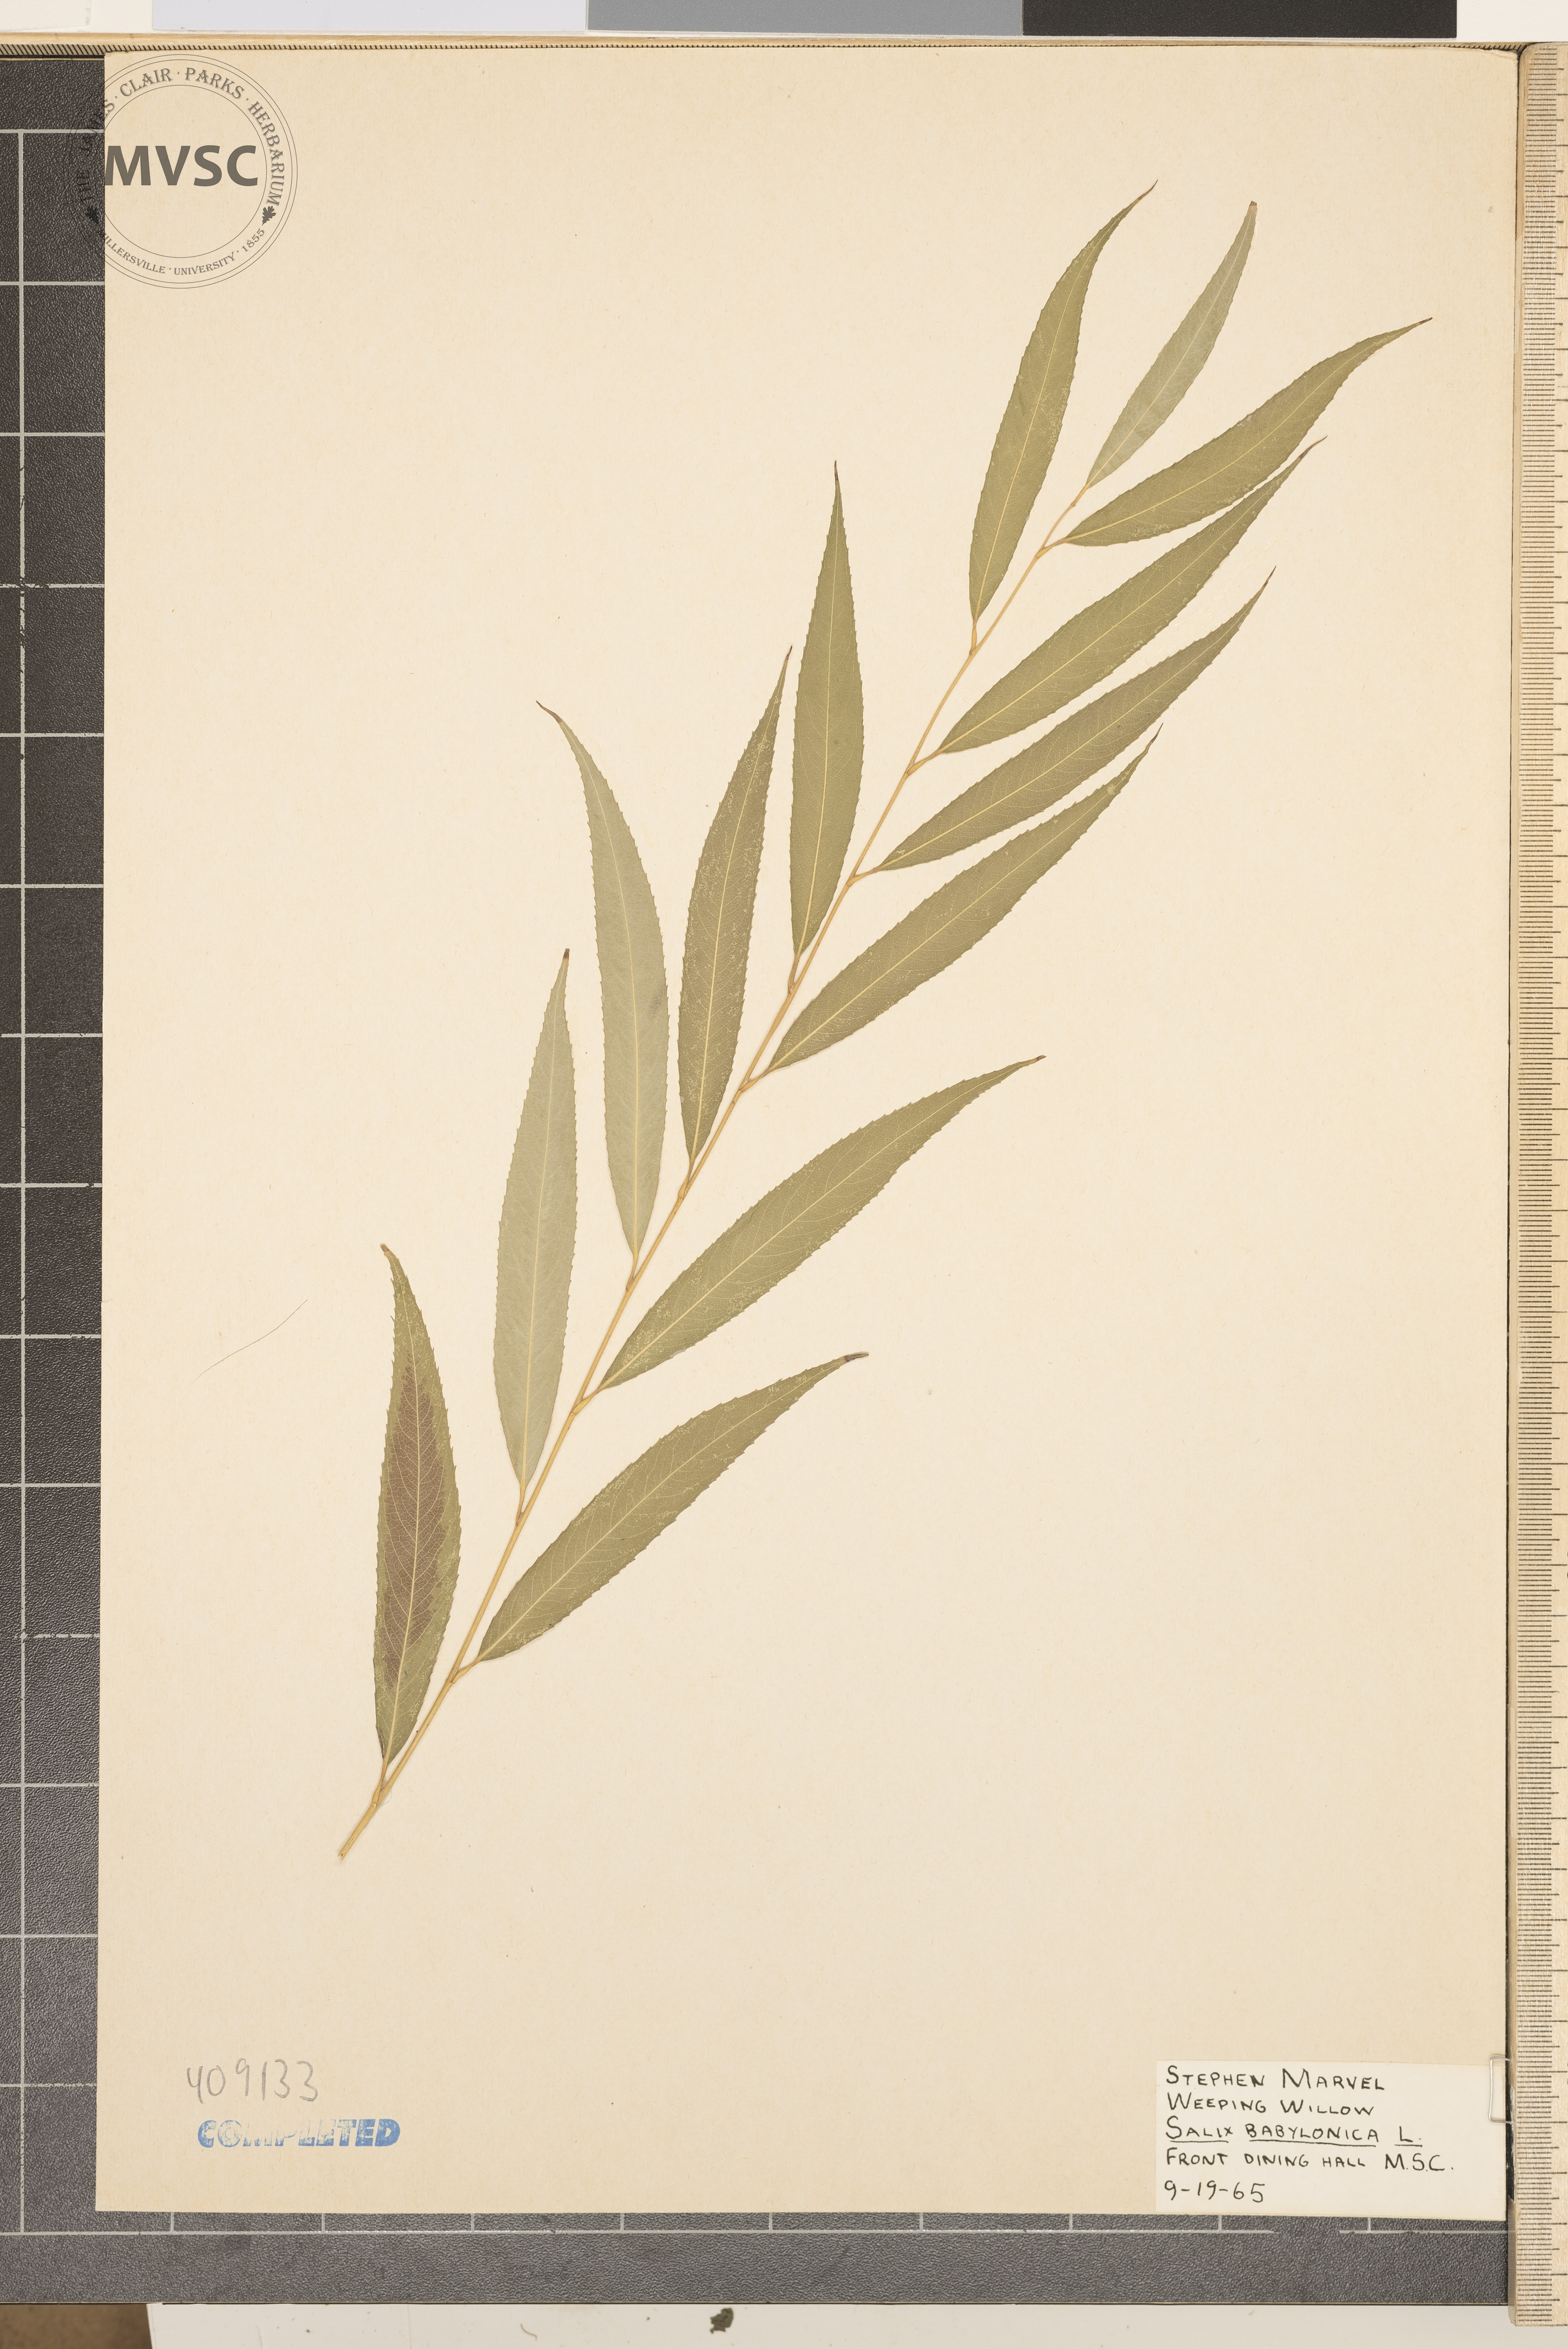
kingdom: Plantae
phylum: Tracheophyta
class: Magnoliopsida
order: Malpighiales
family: Salicaceae
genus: Salix
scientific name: Salix babylonica
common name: Weeping willow
